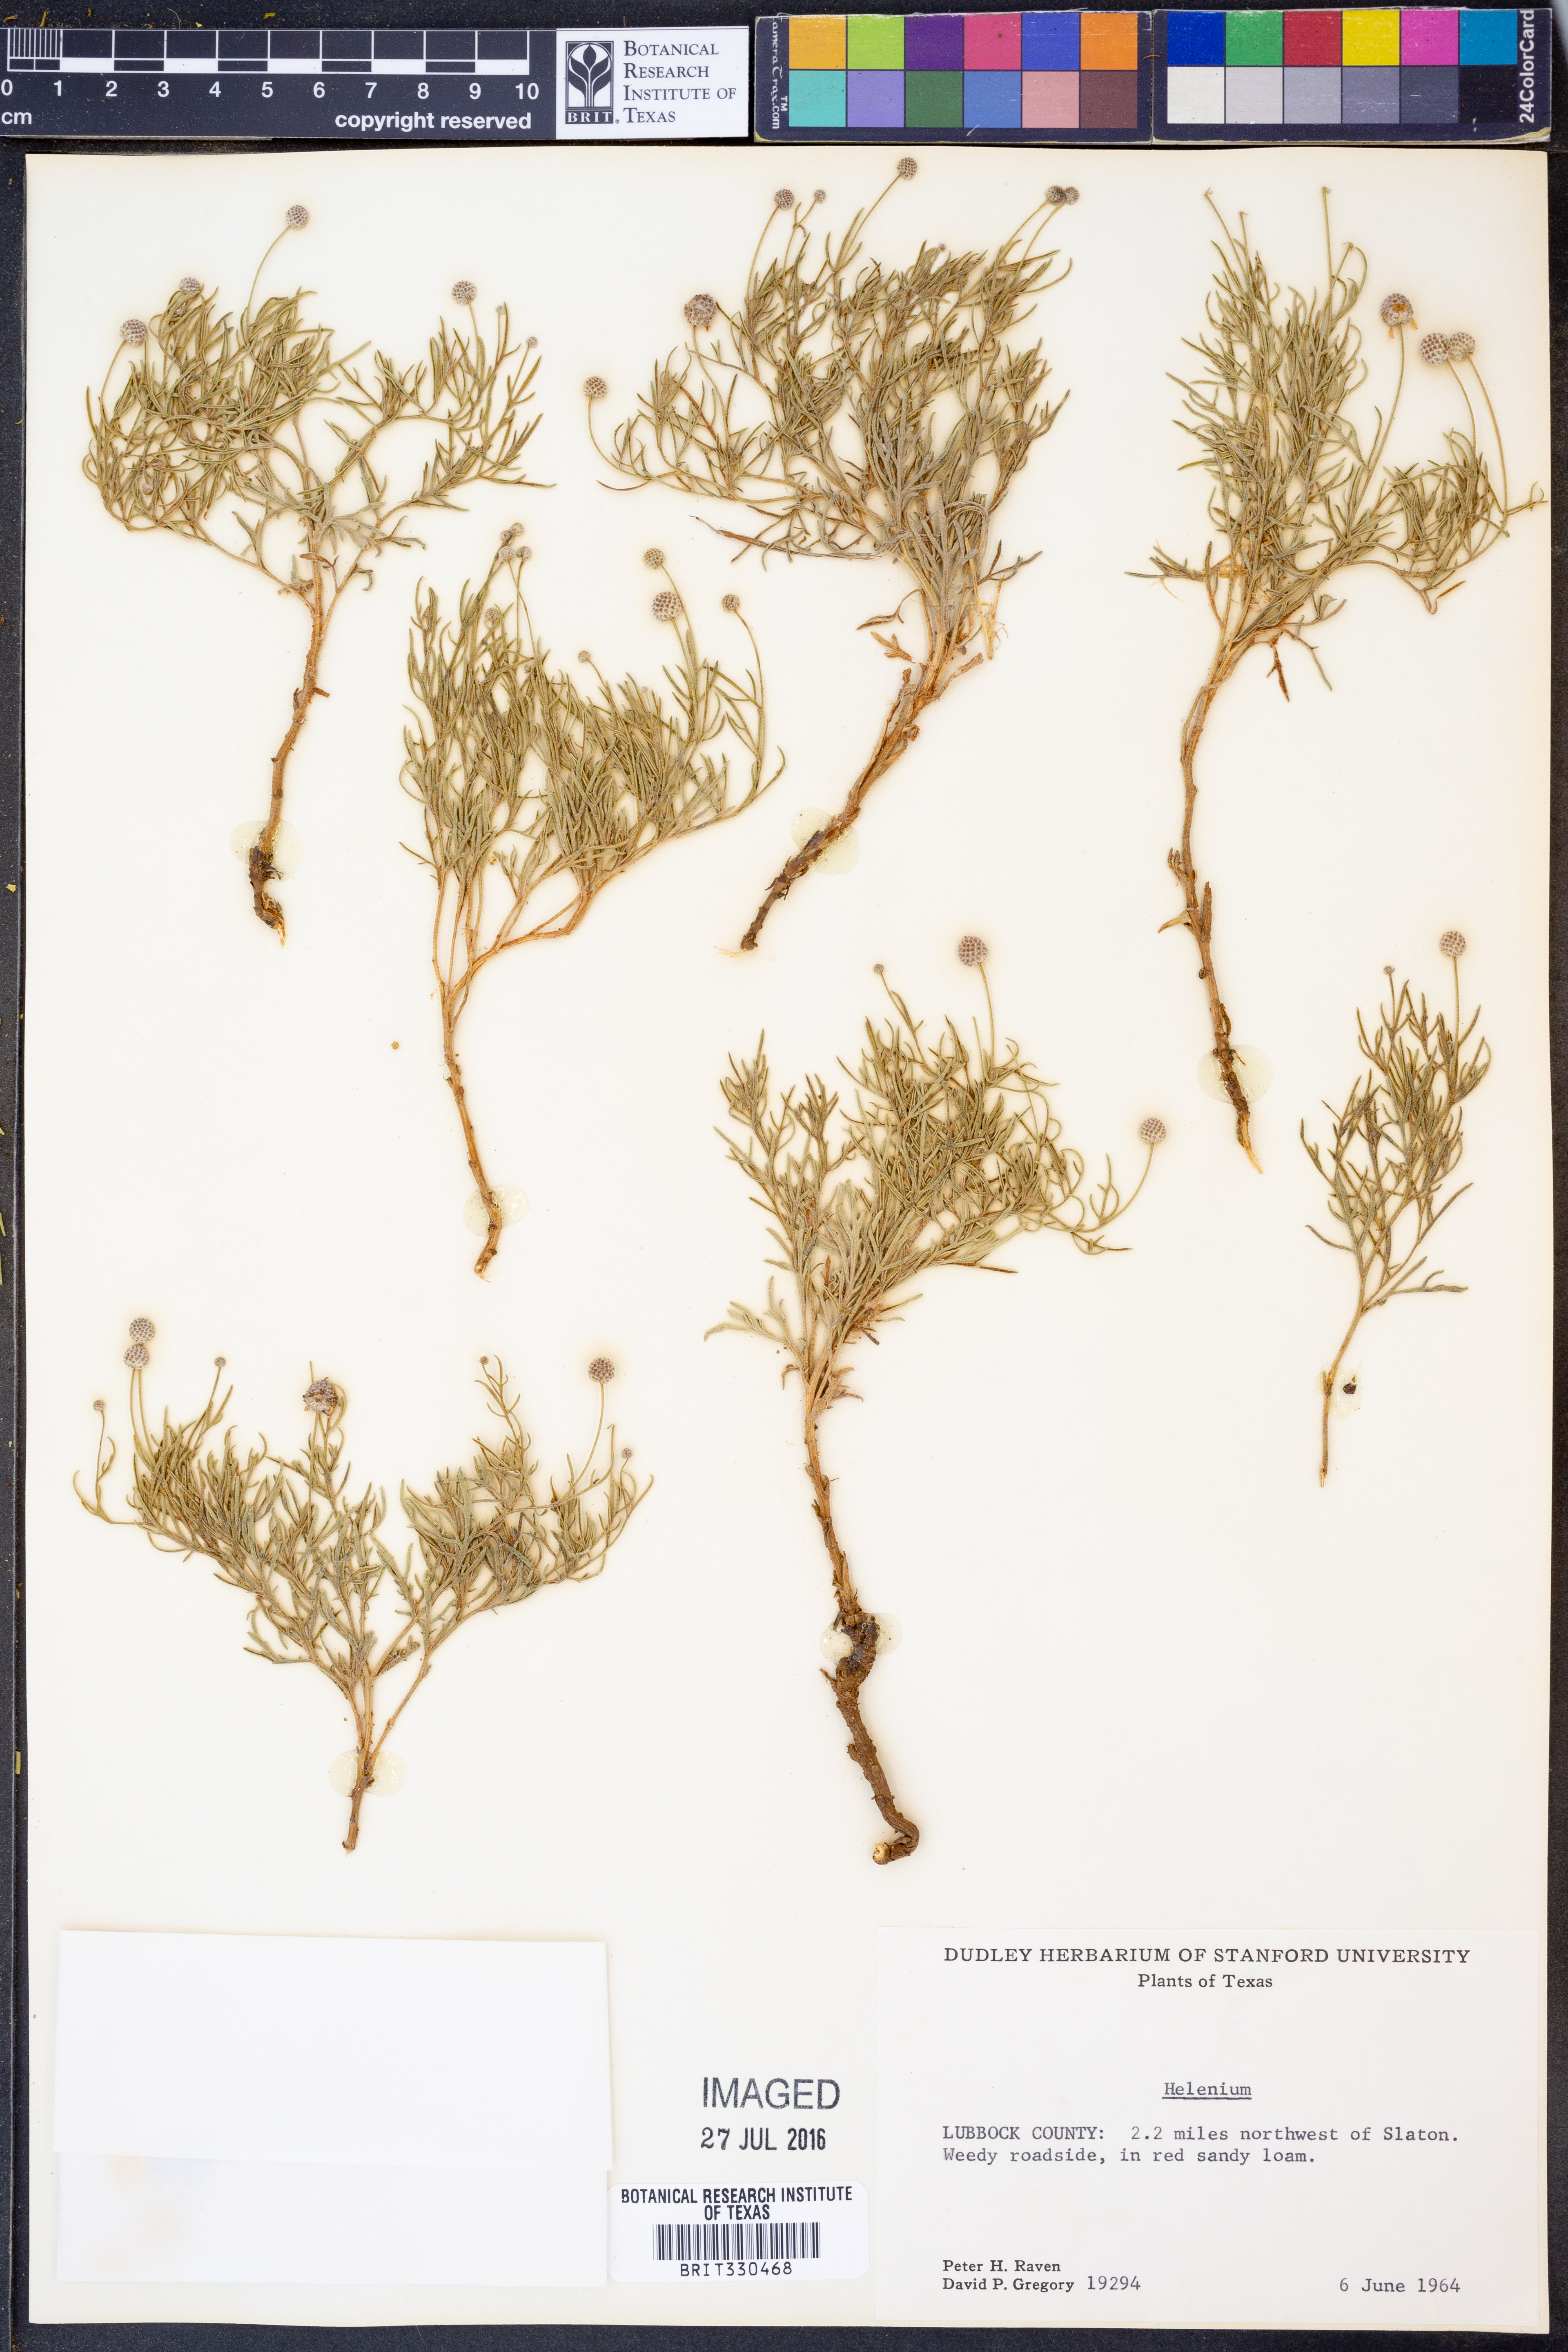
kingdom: Plantae
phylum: Tracheophyta
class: Magnoliopsida
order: Asterales
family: Asteraceae
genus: Helenium
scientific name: Helenium
